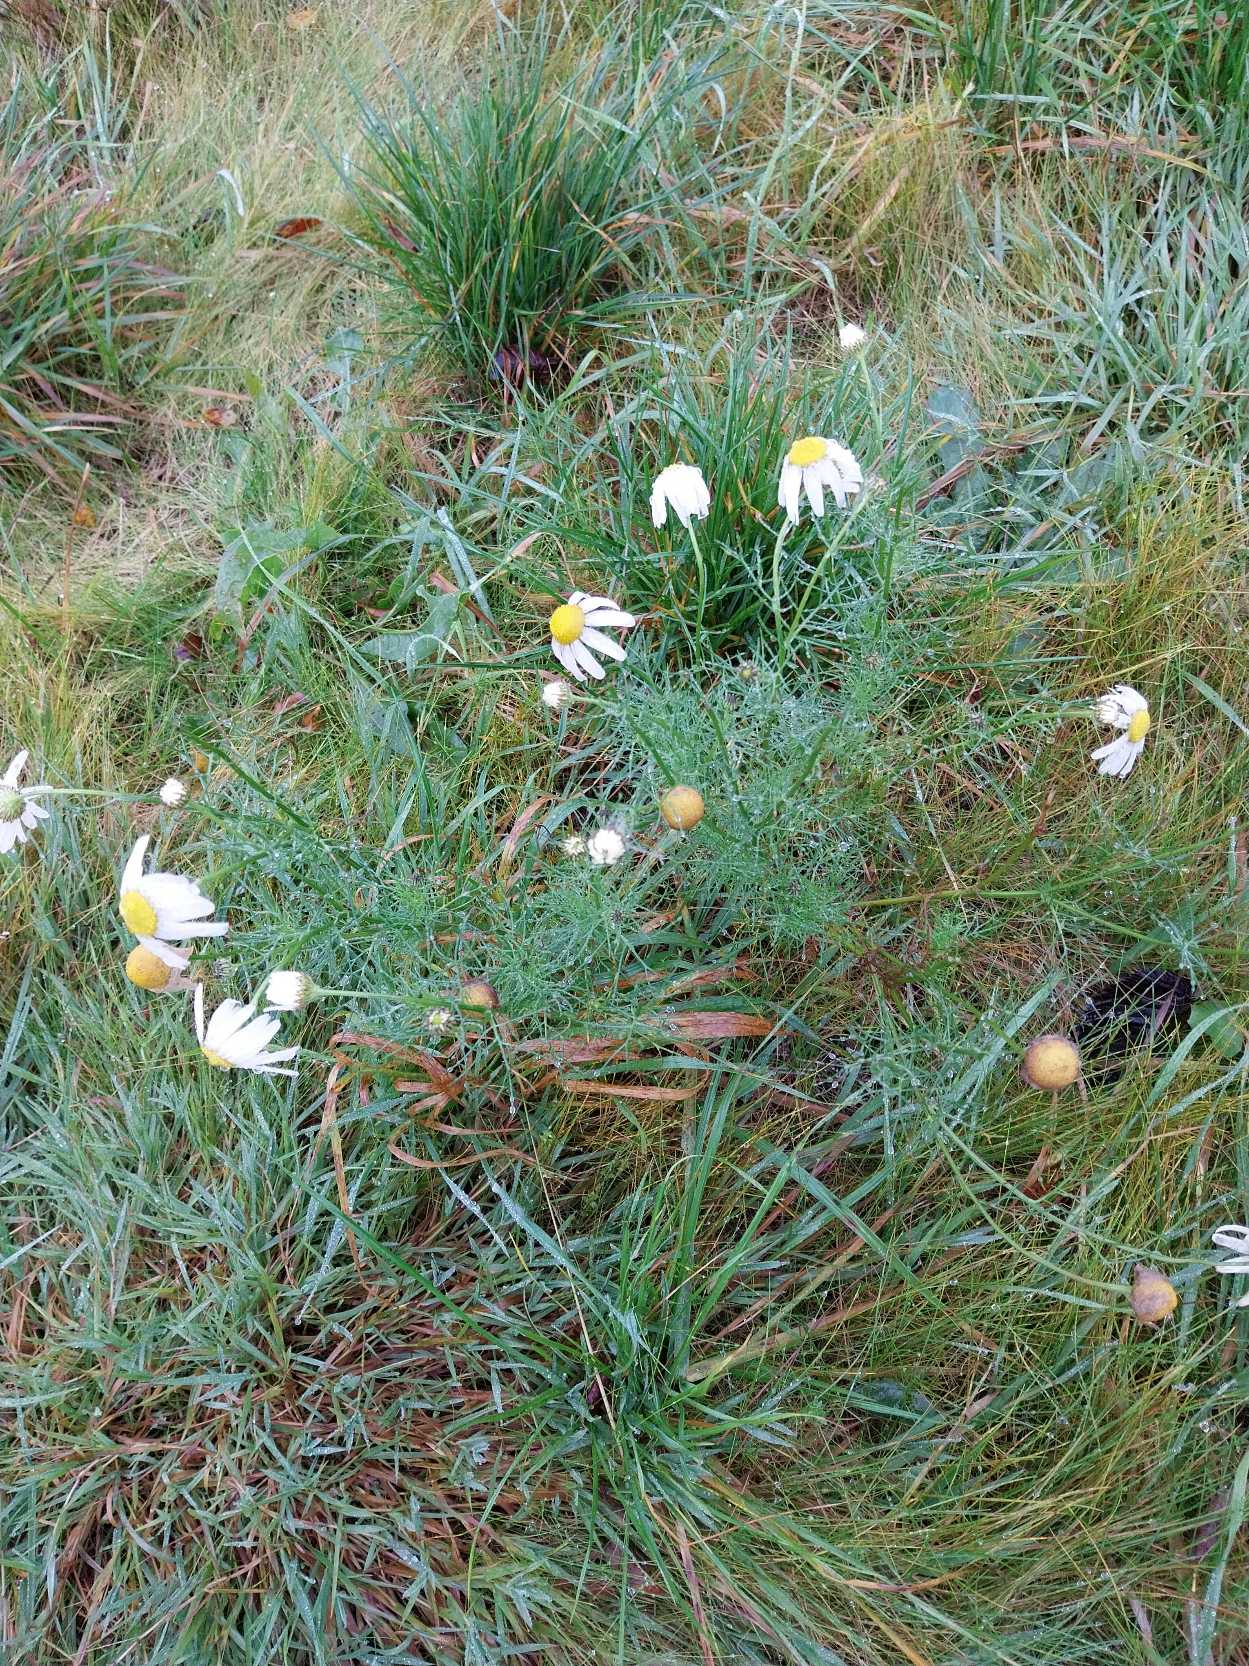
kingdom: Plantae
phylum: Tracheophyta
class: Magnoliopsida
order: Asterales
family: Asteraceae
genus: Tripleurospermum
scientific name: Tripleurospermum inodorum
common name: Lugtløs kamille
